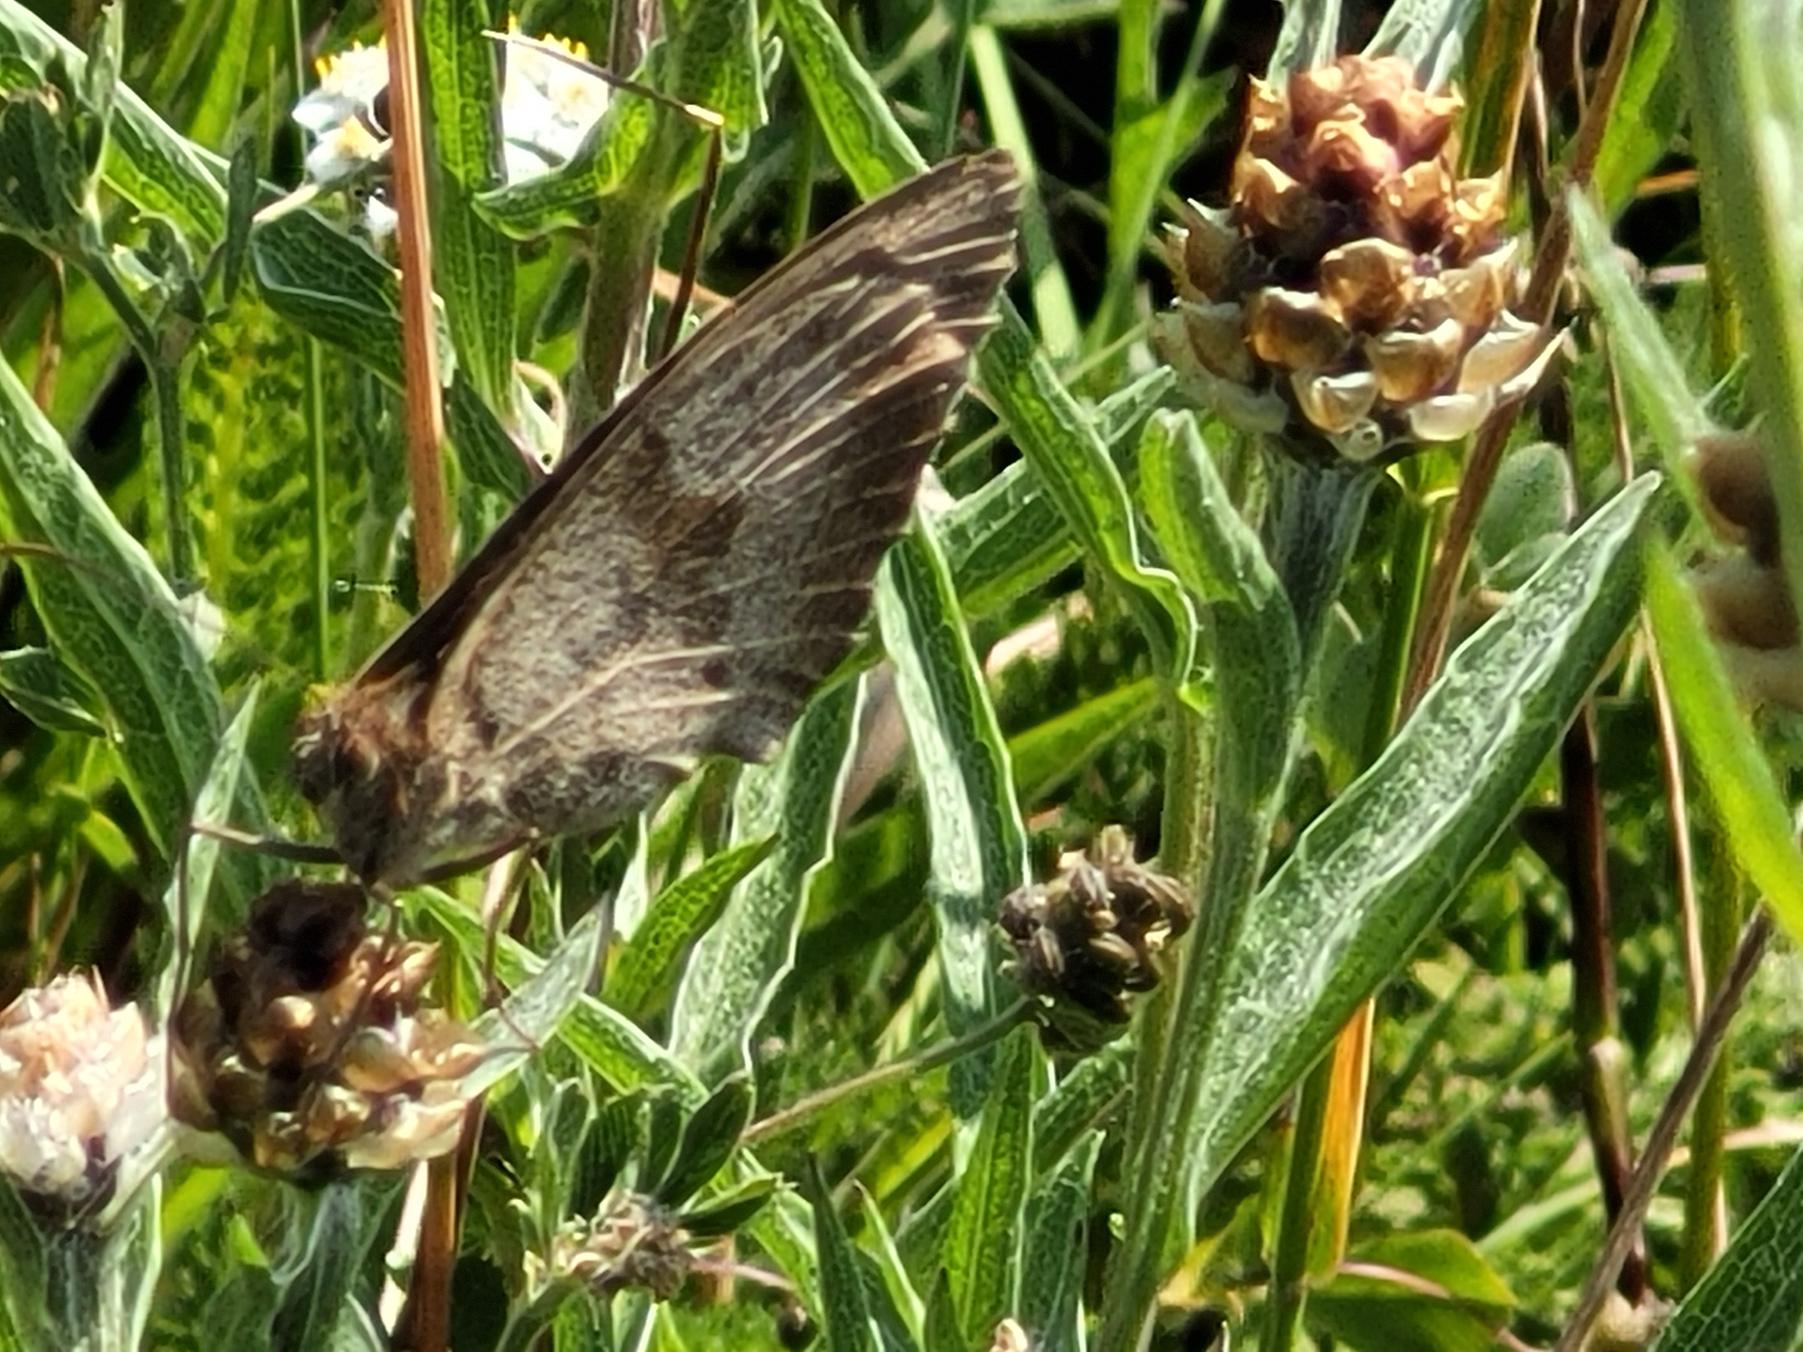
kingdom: Animalia
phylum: Arthropoda
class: Insecta
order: Lepidoptera
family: Nymphalidae
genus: Maniola
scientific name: Maniola jurtina
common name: Græsrandøje
